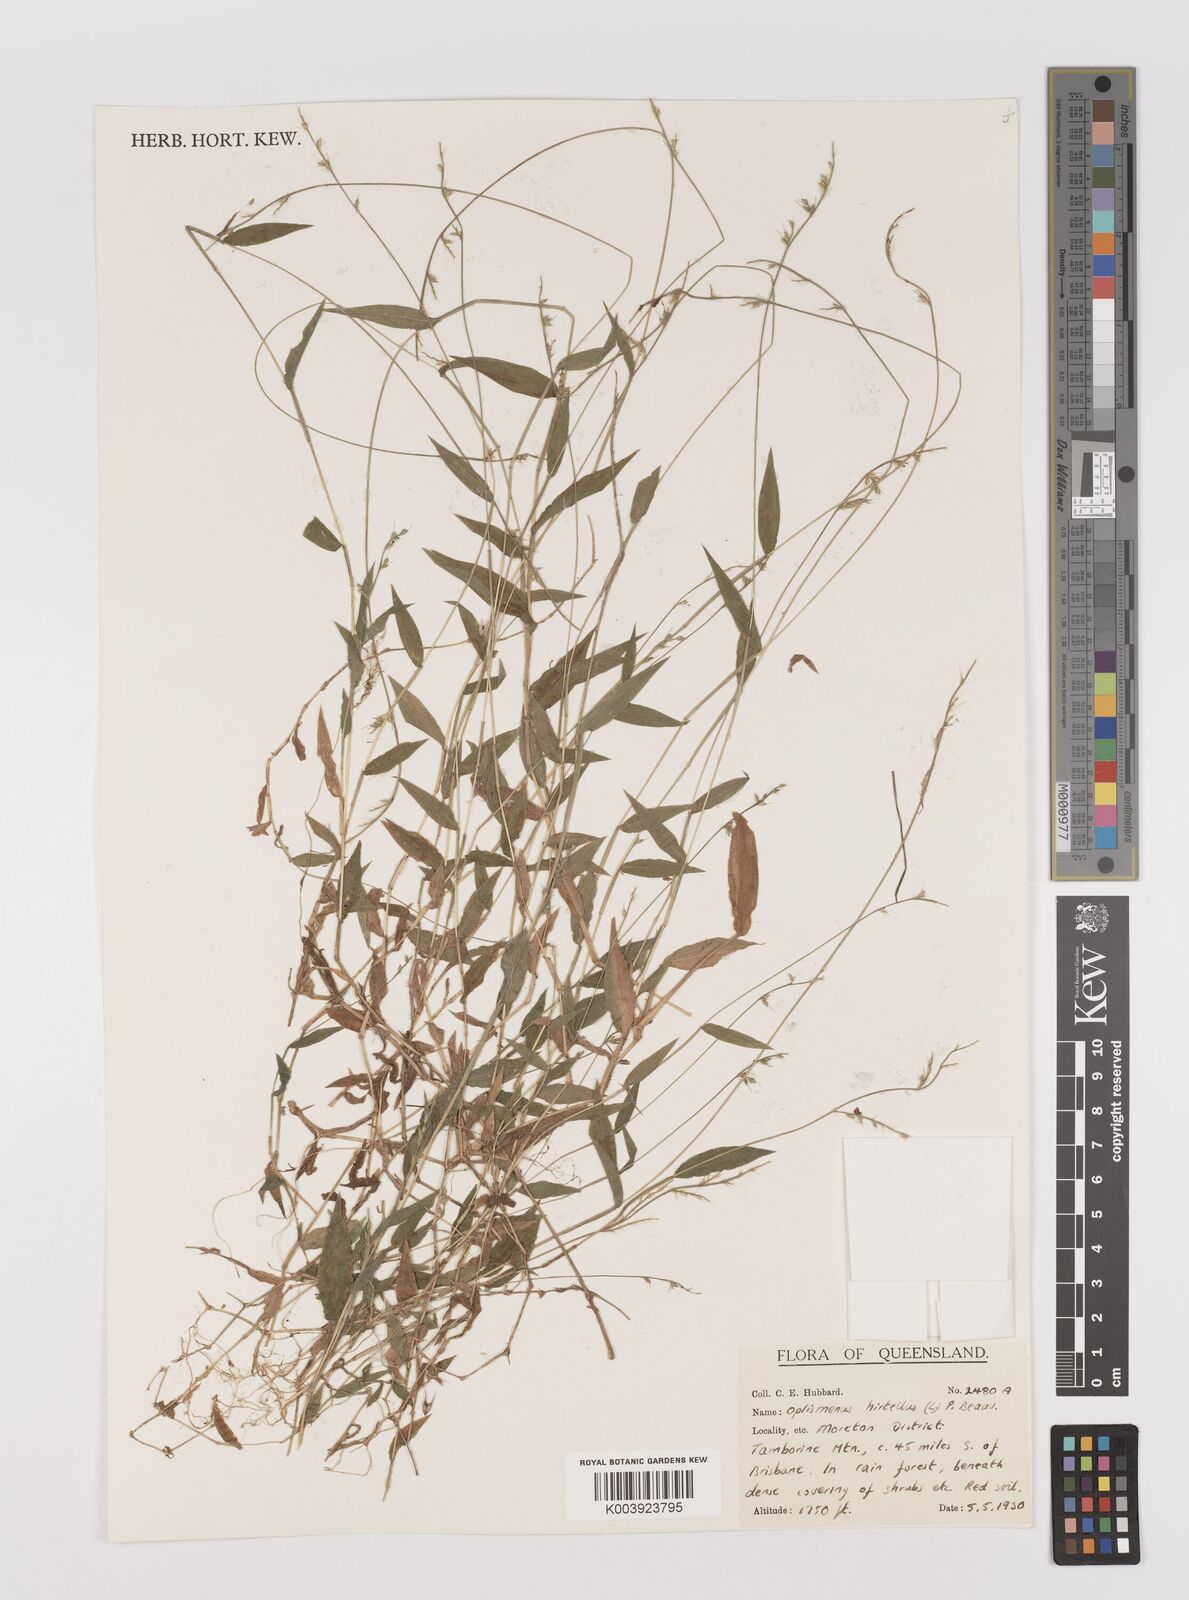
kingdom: Plantae
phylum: Tracheophyta
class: Liliopsida
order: Poales
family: Poaceae
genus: Oplismenus
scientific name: Oplismenus hirtellus
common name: Basketgrass
